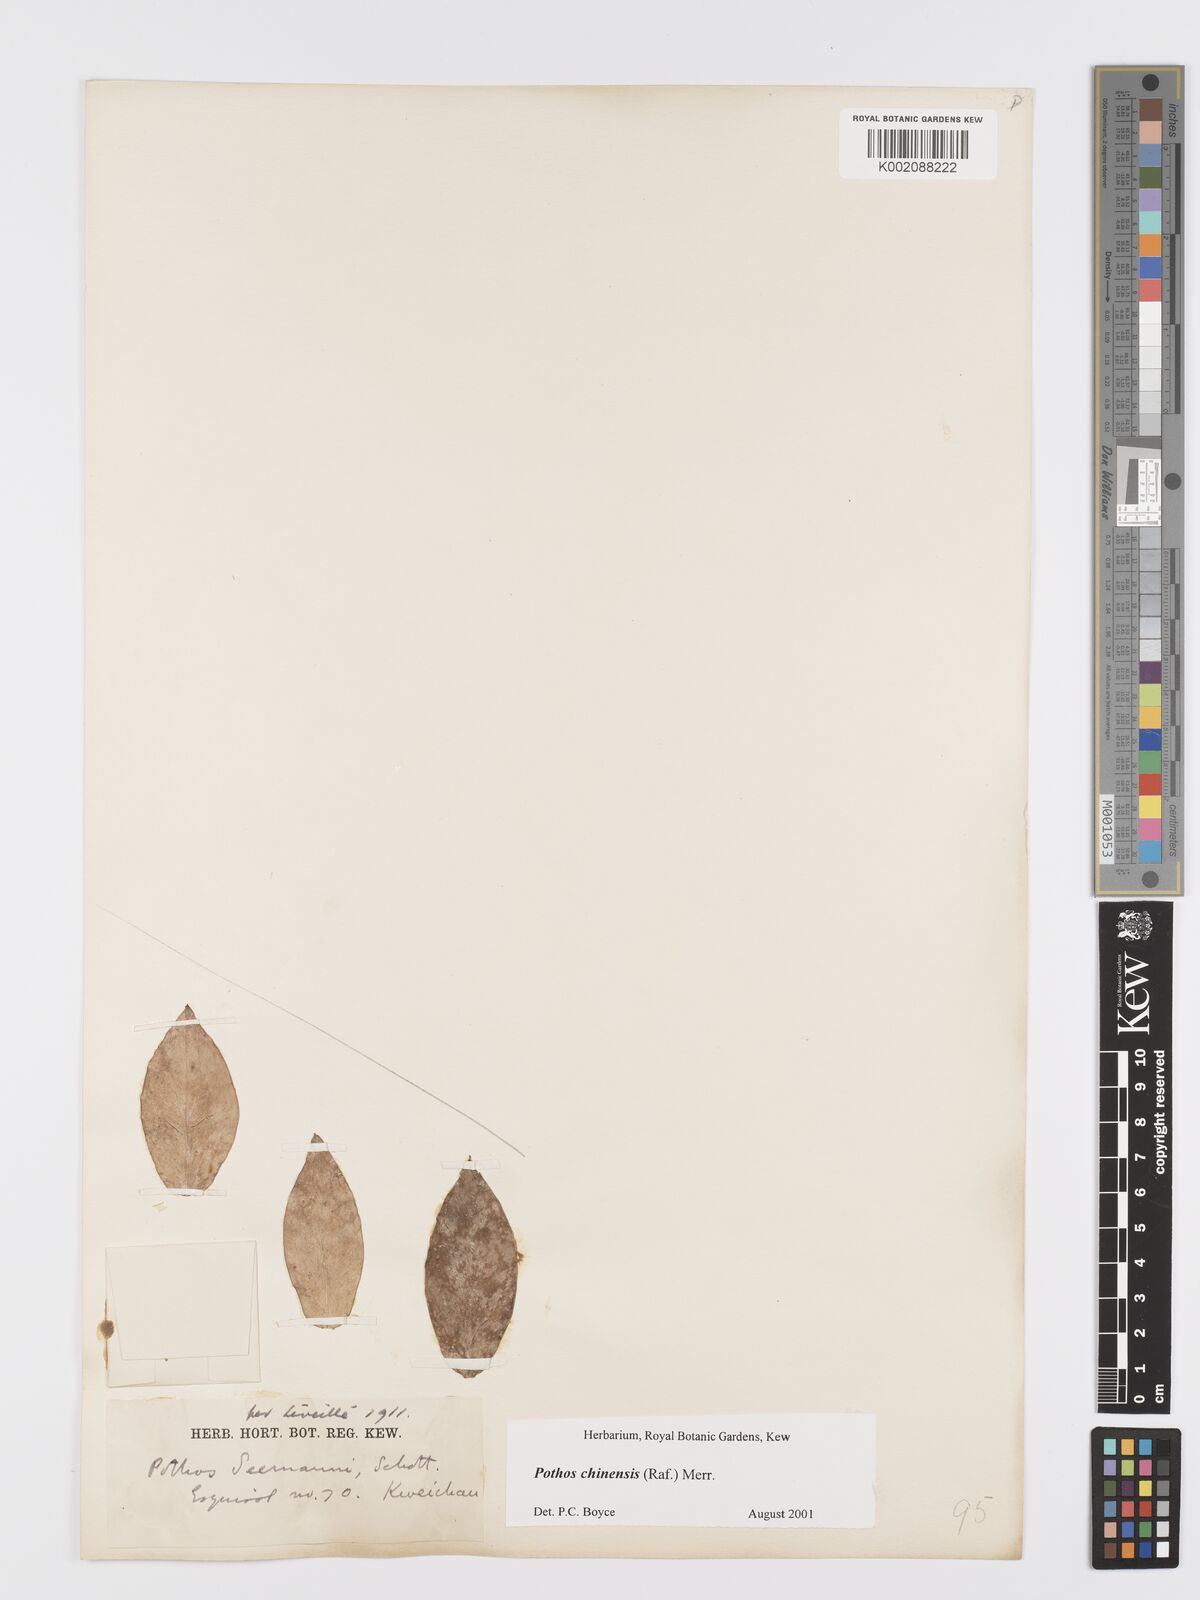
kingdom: Plantae
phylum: Tracheophyta
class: Liliopsida
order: Alismatales
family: Araceae
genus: Pothos
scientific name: Pothos chinensis
